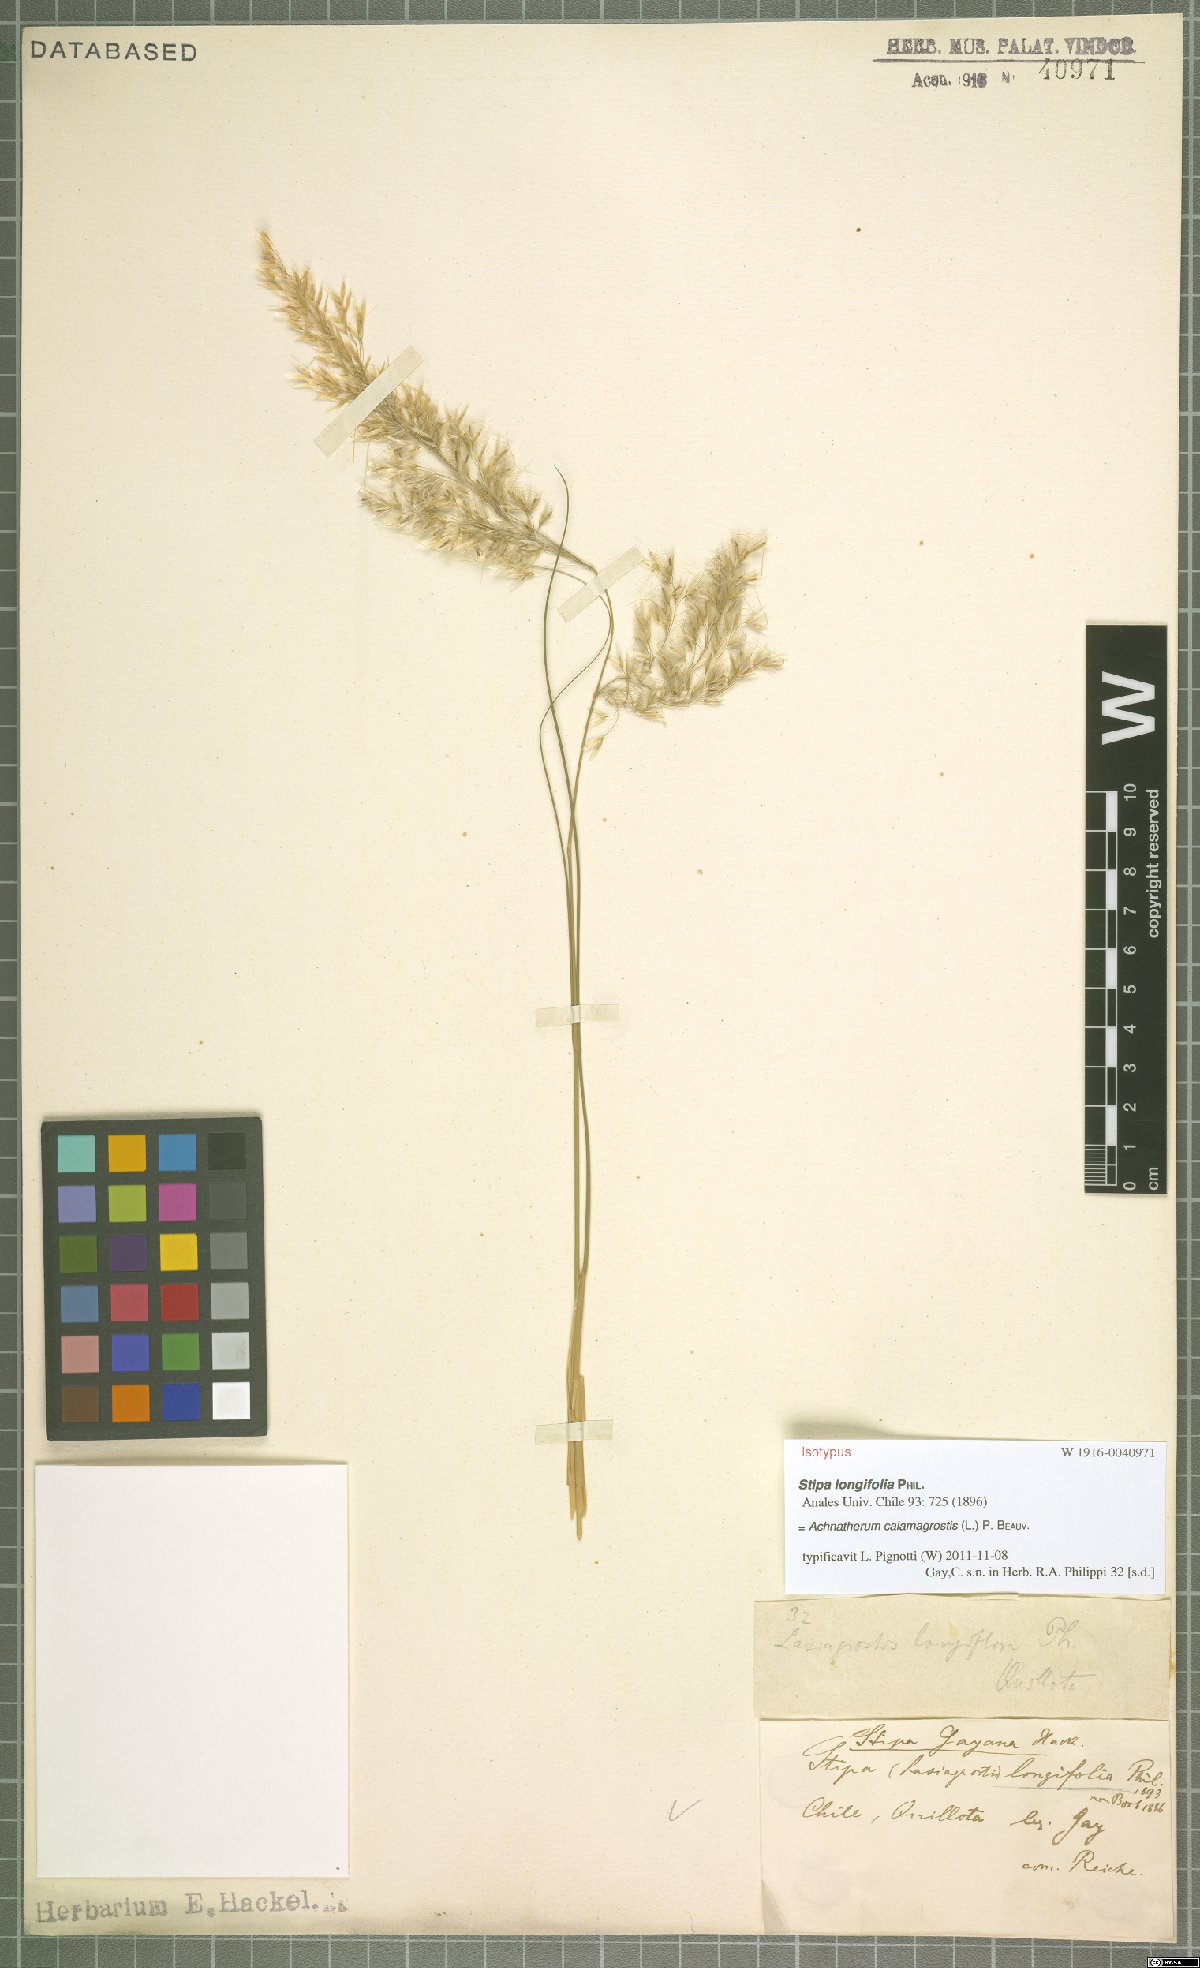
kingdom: Plantae
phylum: Tracheophyta
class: Liliopsida
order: Poales
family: Poaceae
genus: Achnatherum
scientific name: Achnatherum calamagrostis
